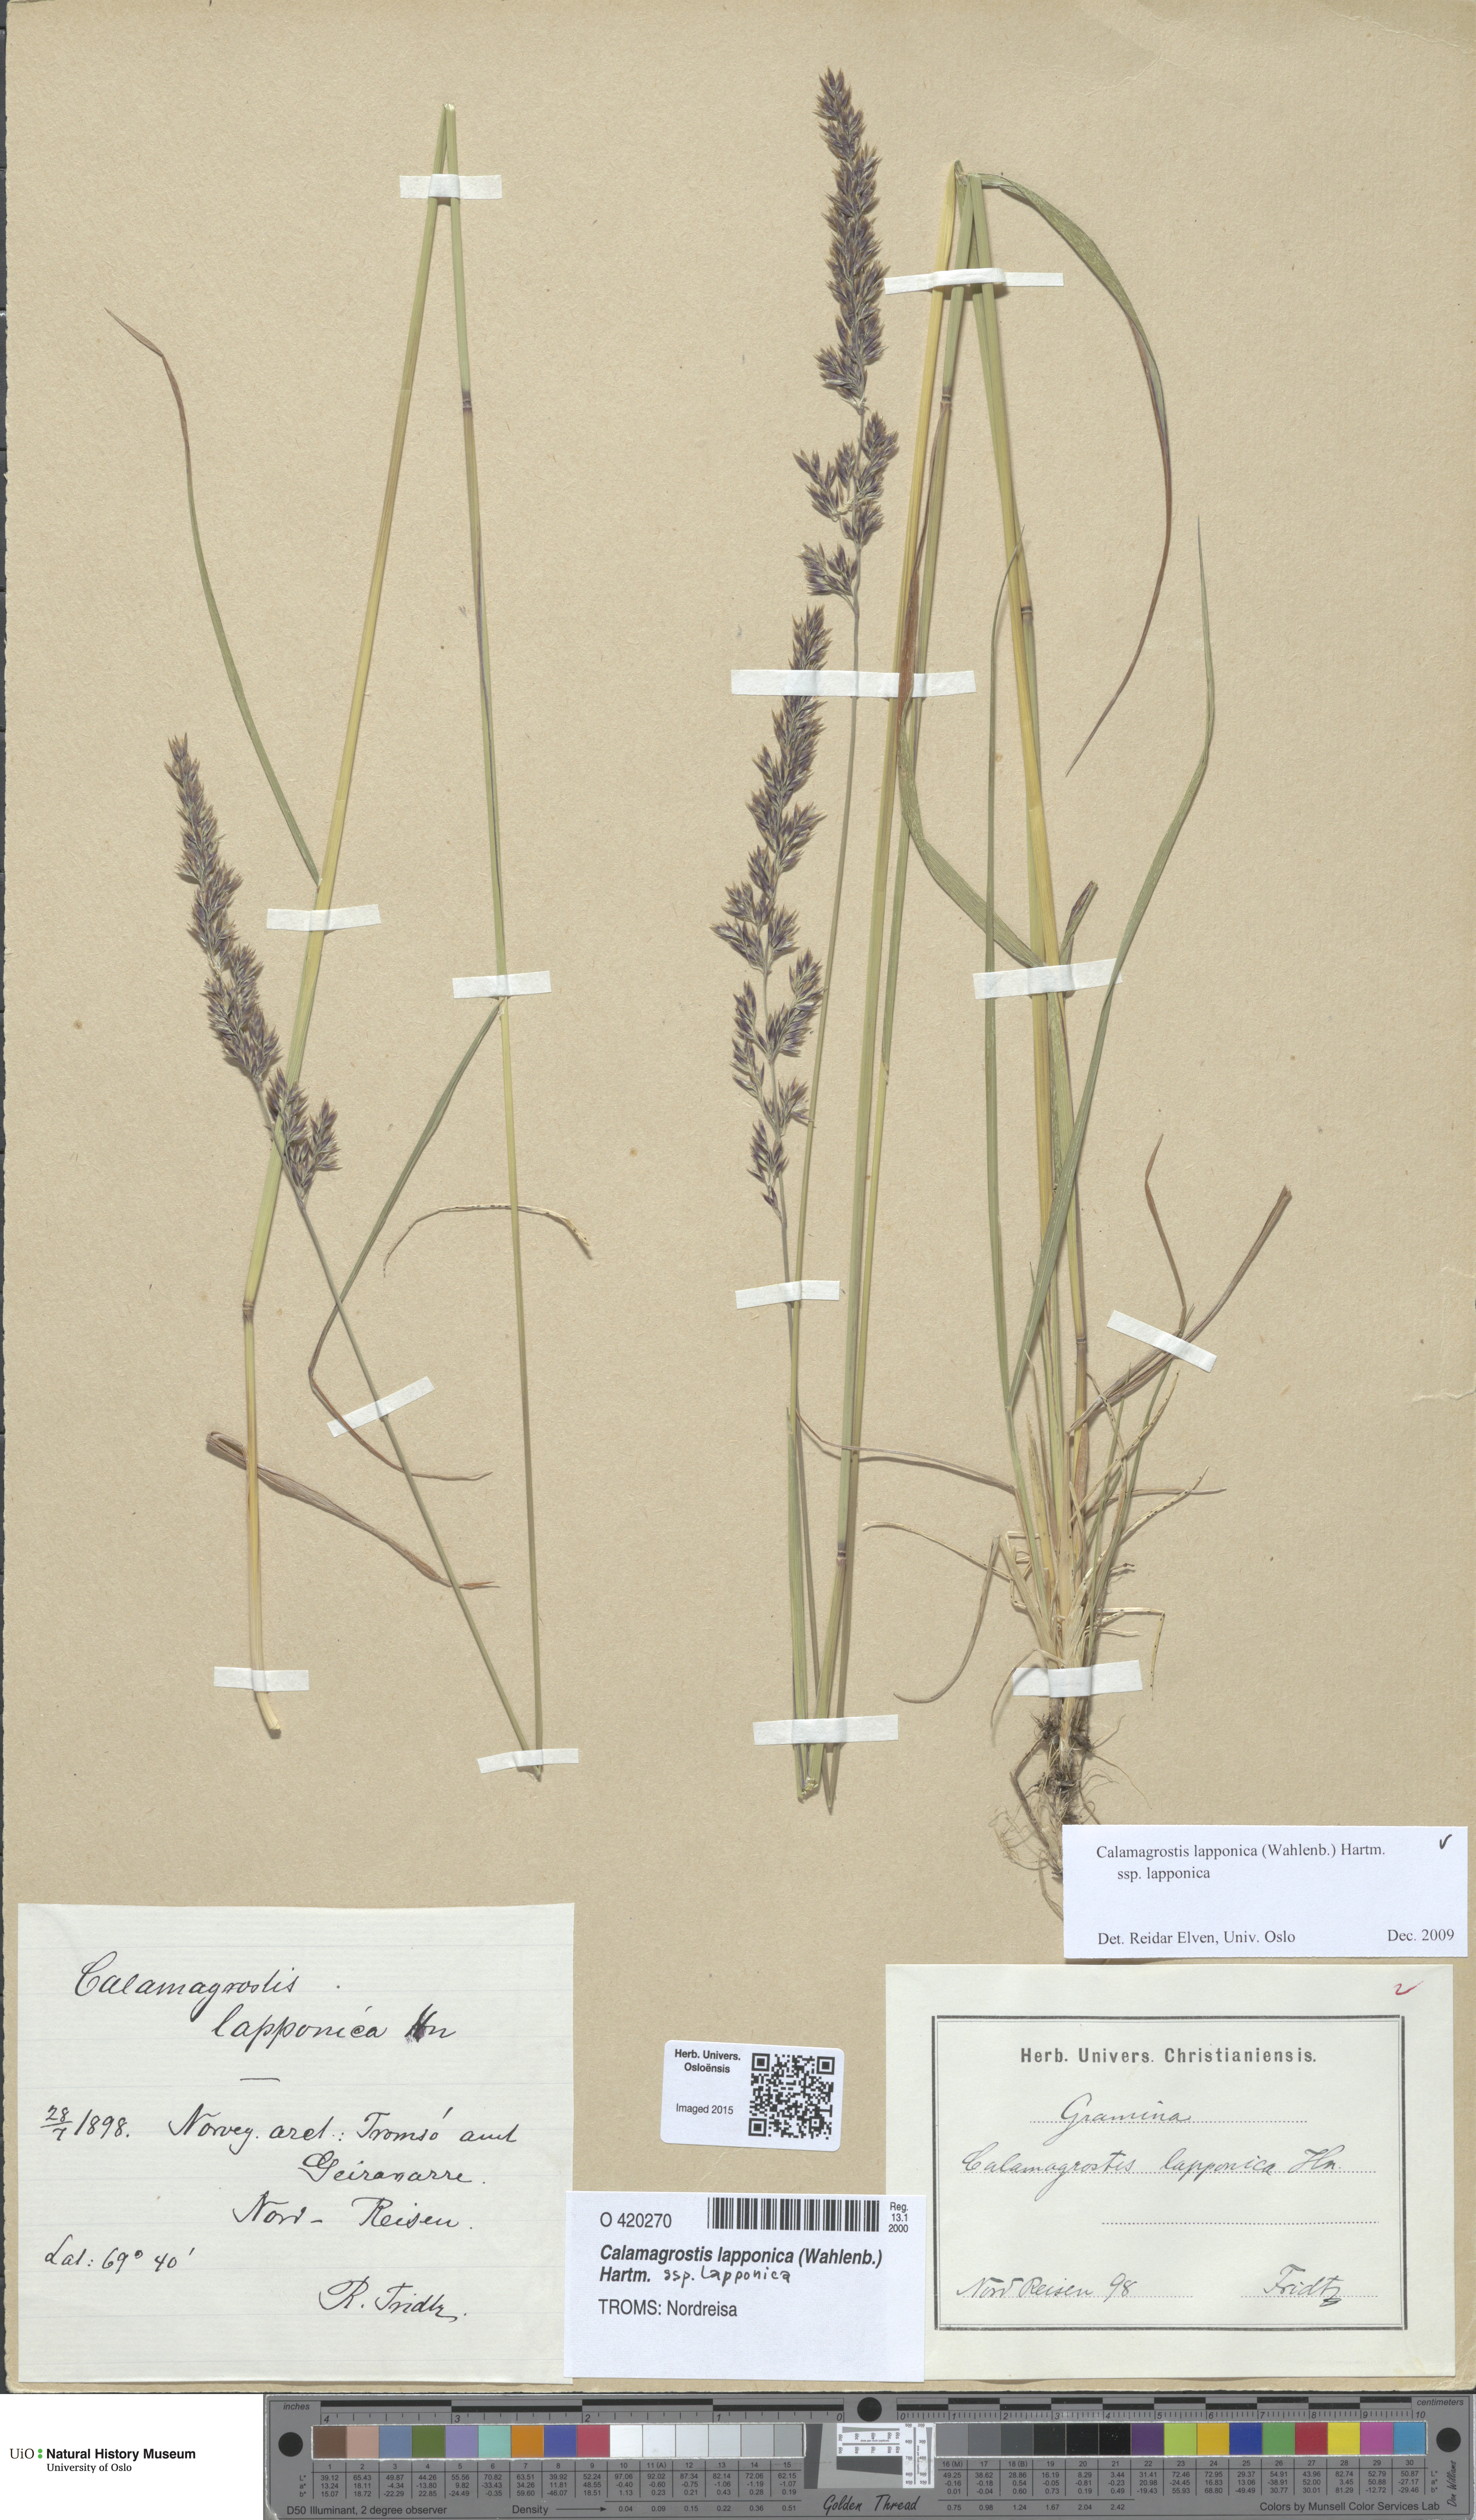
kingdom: Plantae
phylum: Tracheophyta
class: Liliopsida
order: Poales
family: Poaceae
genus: Calamagrostis
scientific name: Calamagrostis lapponica
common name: Lapland reedgrass
